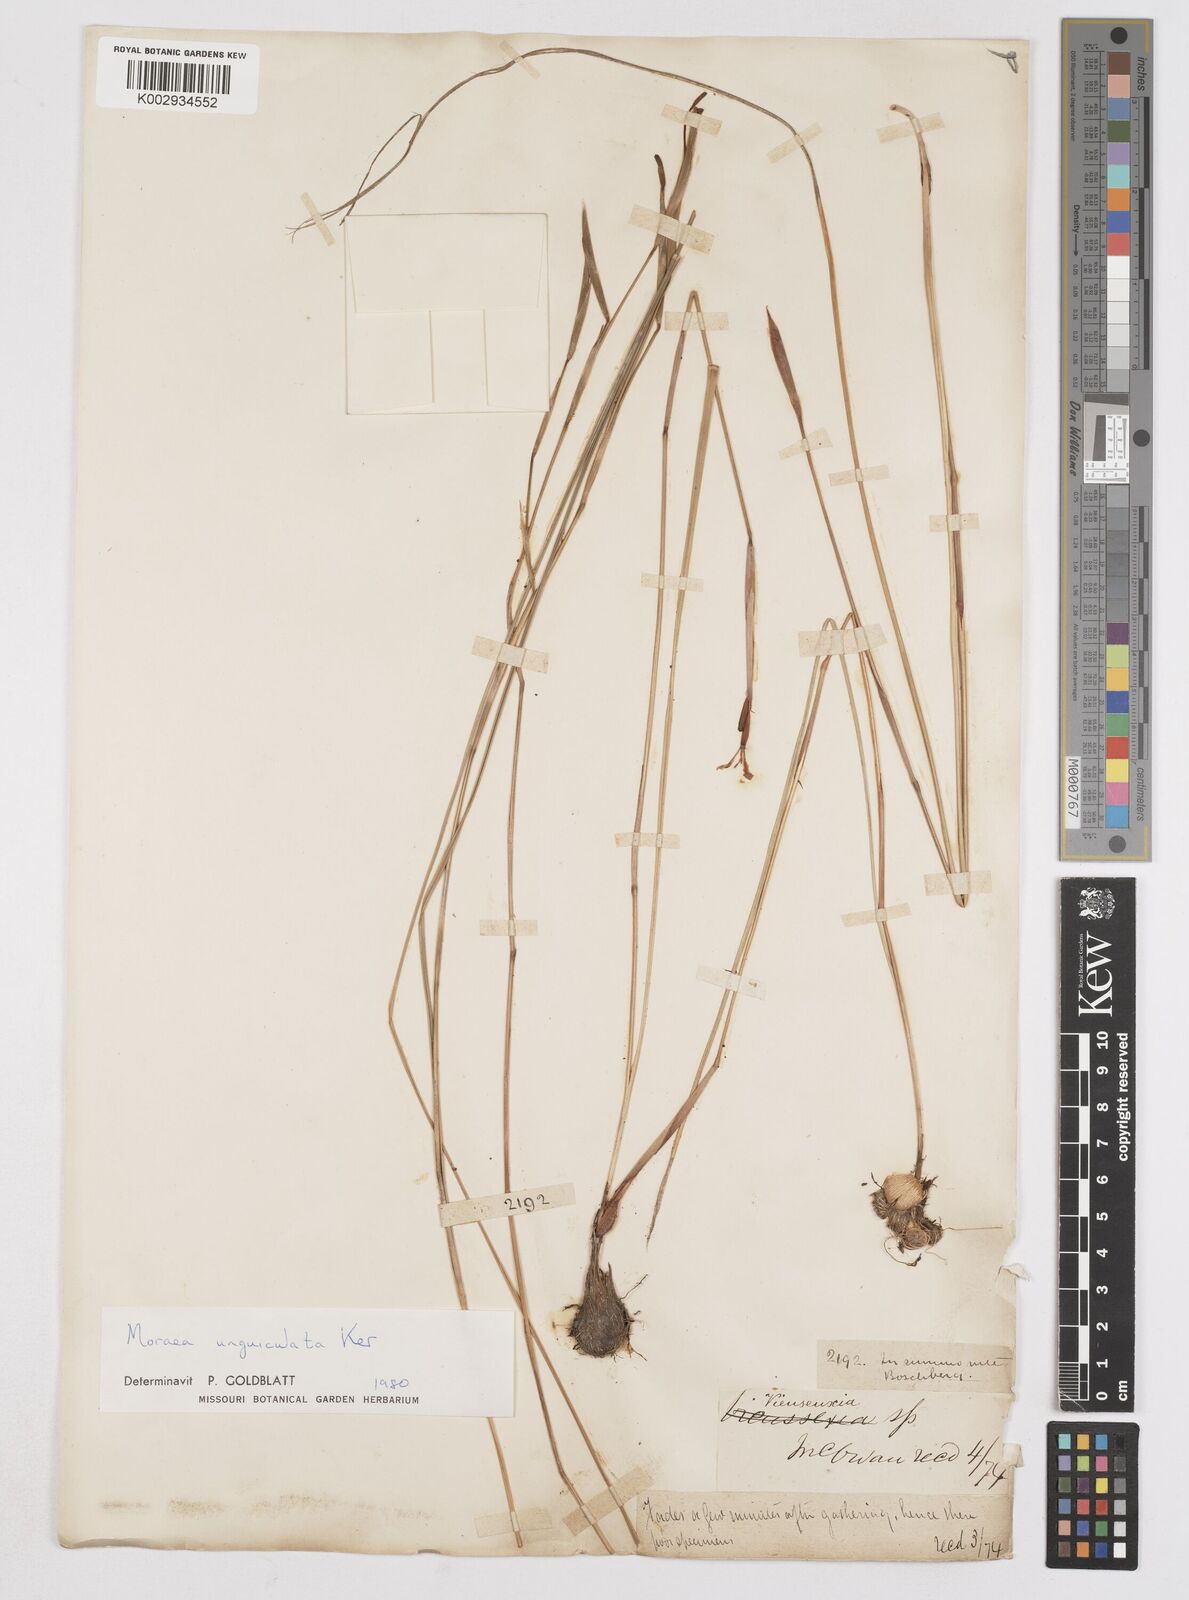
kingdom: Plantae
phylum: Tracheophyta
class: Liliopsida
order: Asparagales
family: Iridaceae
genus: Moraea
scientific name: Moraea unguiculata
